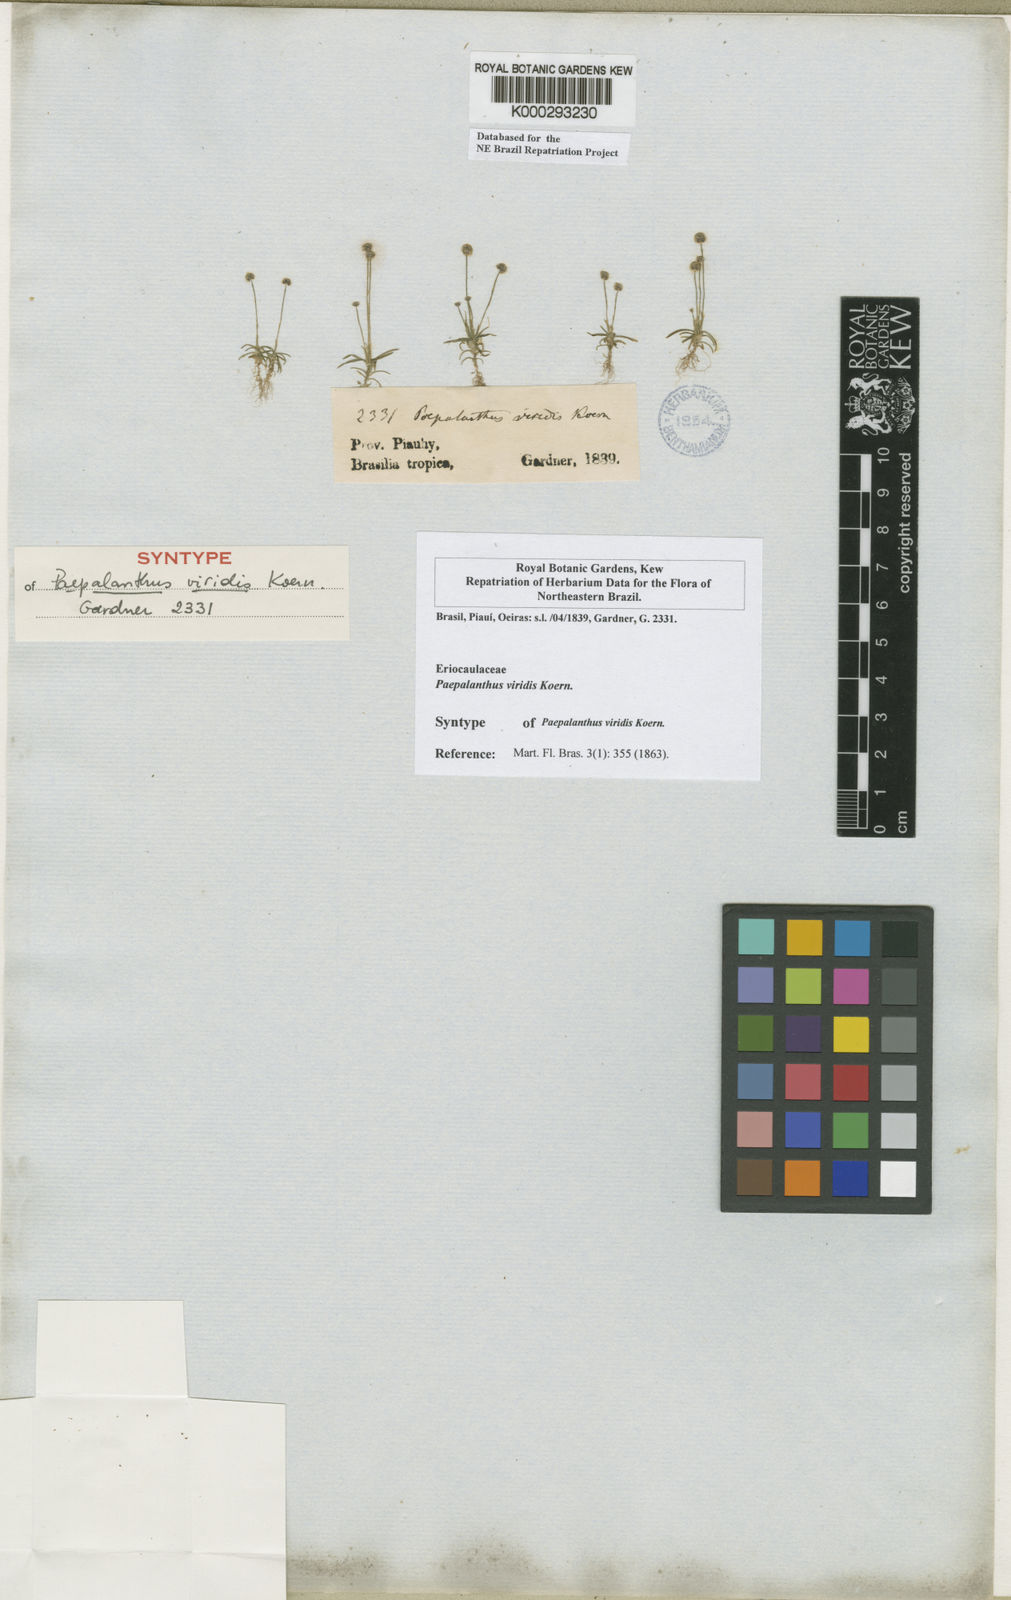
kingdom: Plantae
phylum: Tracheophyta
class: Liliopsida
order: Poales
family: Eriocaulaceae
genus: Paepalanthus
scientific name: Paepalanthus
